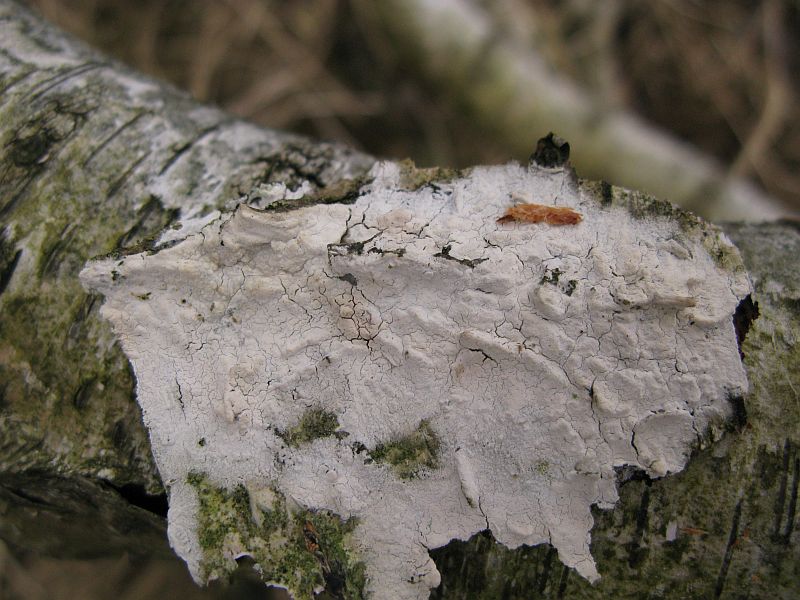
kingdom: Fungi
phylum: Basidiomycota
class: Agaricomycetes
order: Polyporales
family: Hyphodermataceae
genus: Hyphoderma
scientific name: Hyphoderma setigerum
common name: håret kalkskind
